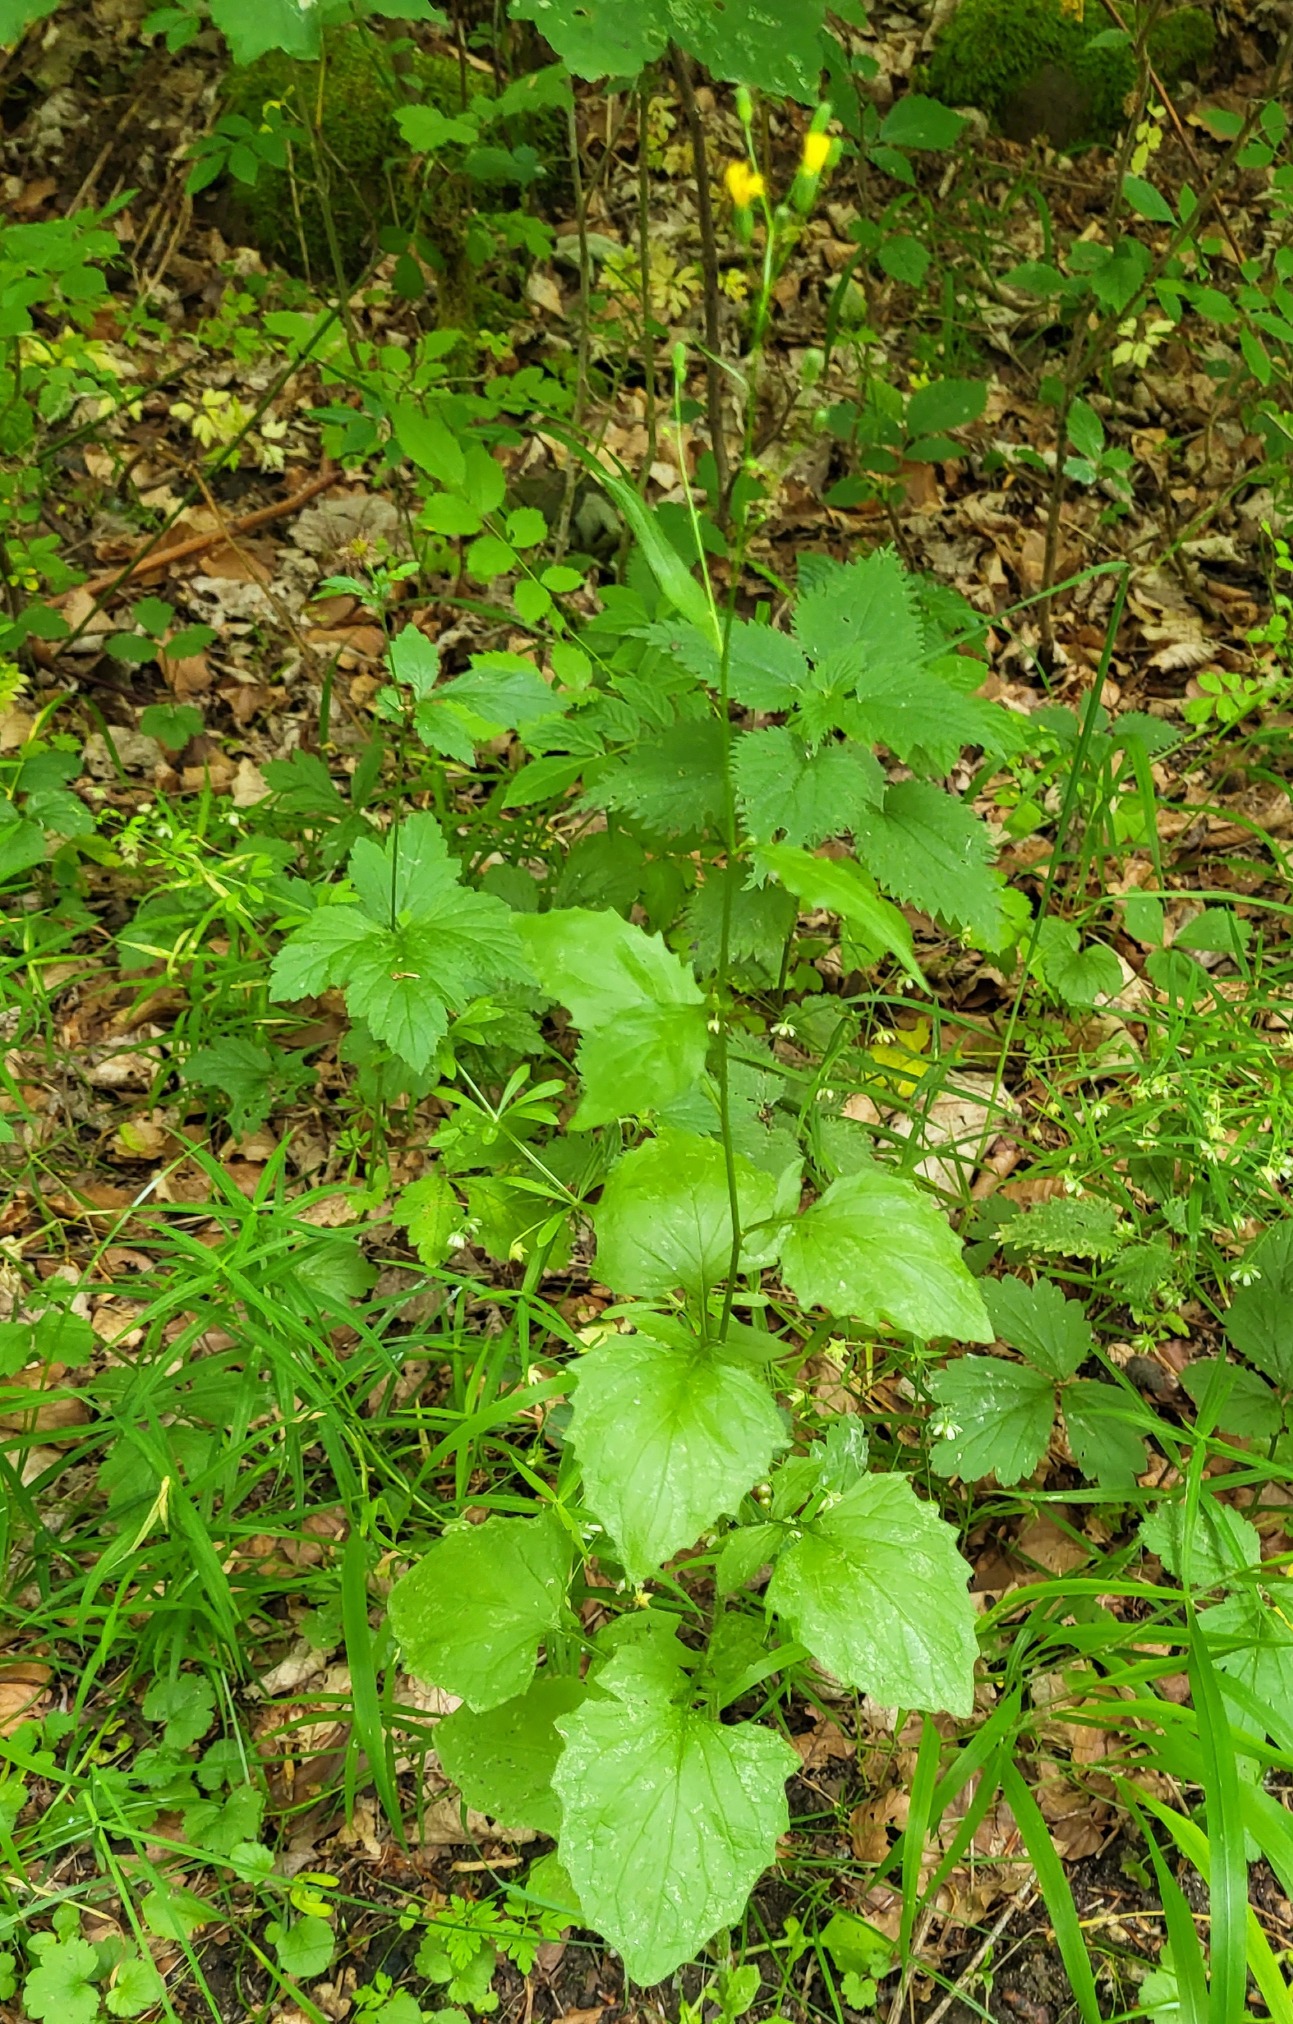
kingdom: Plantae
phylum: Tracheophyta
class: Magnoliopsida
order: Asterales
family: Asteraceae
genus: Lapsana
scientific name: Lapsana communis
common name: Haremad
